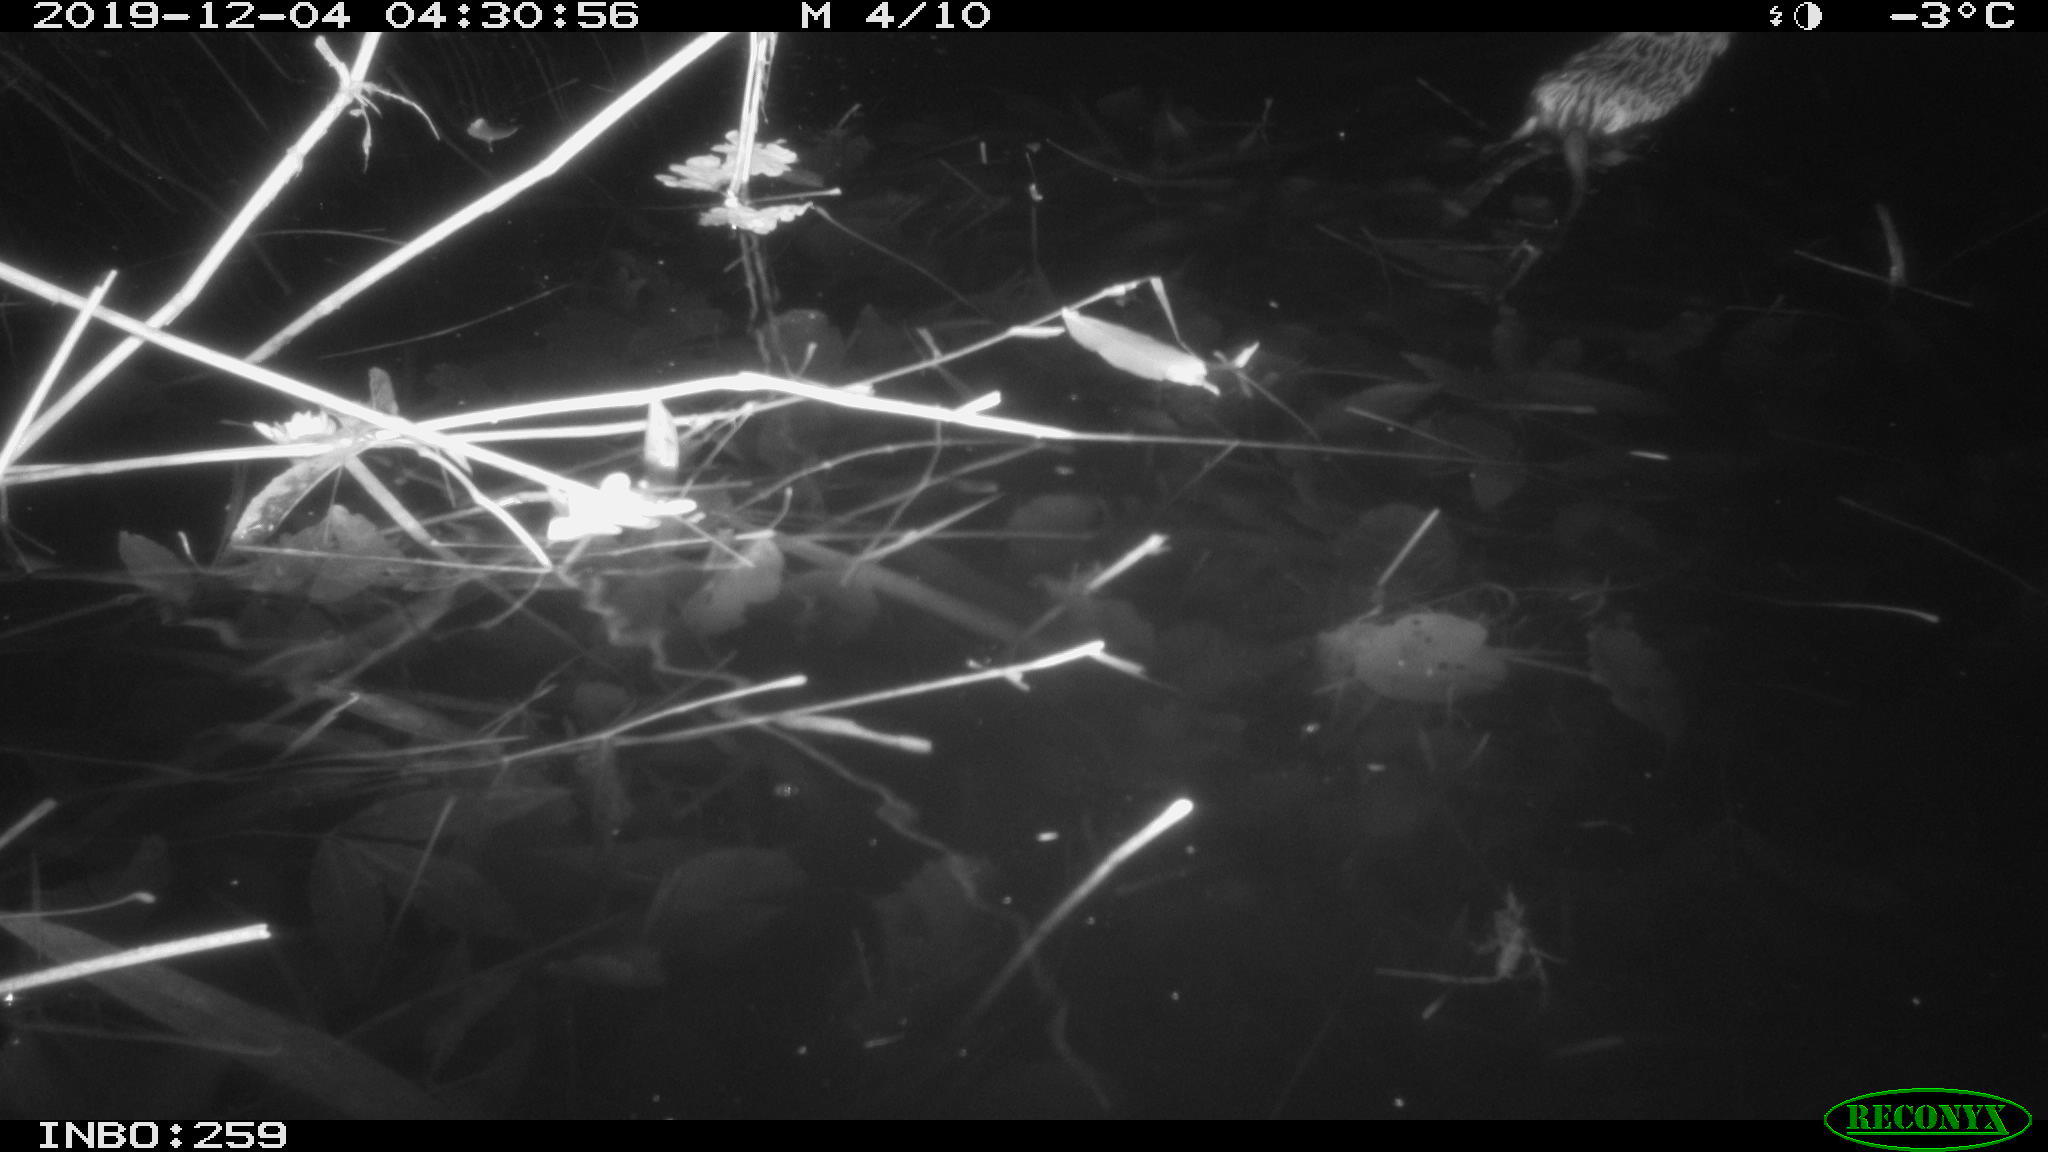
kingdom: Animalia
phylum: Chordata
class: Mammalia
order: Rodentia
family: Cricetidae
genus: Ondatra
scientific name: Ondatra zibethicus
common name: Muskrat
